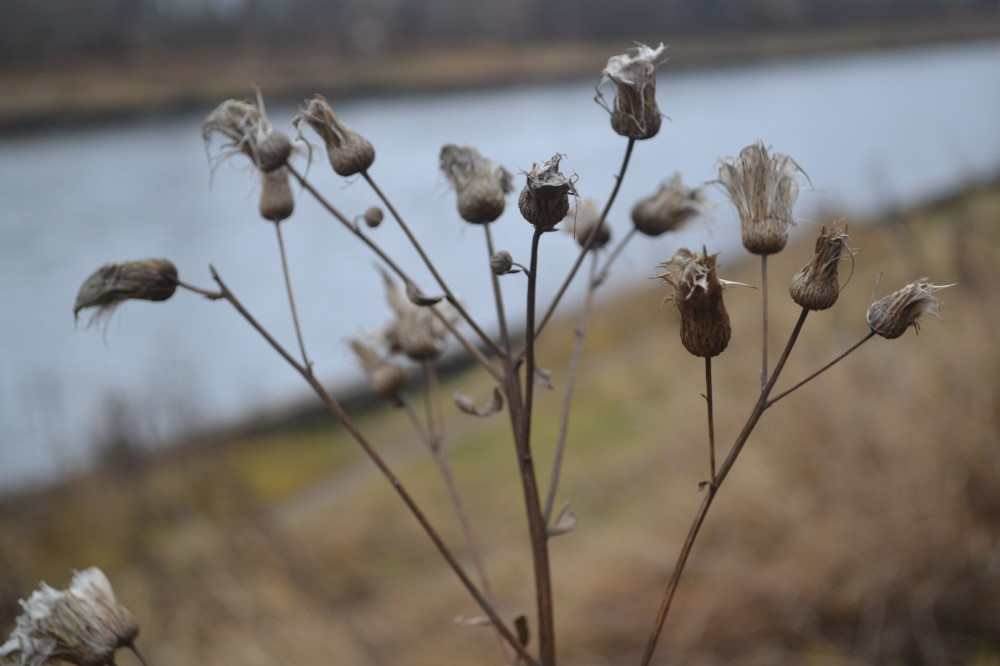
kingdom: Plantae
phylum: Tracheophyta
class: Magnoliopsida
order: Asterales
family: Asteraceae
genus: Cirsium
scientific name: Cirsium arvense
